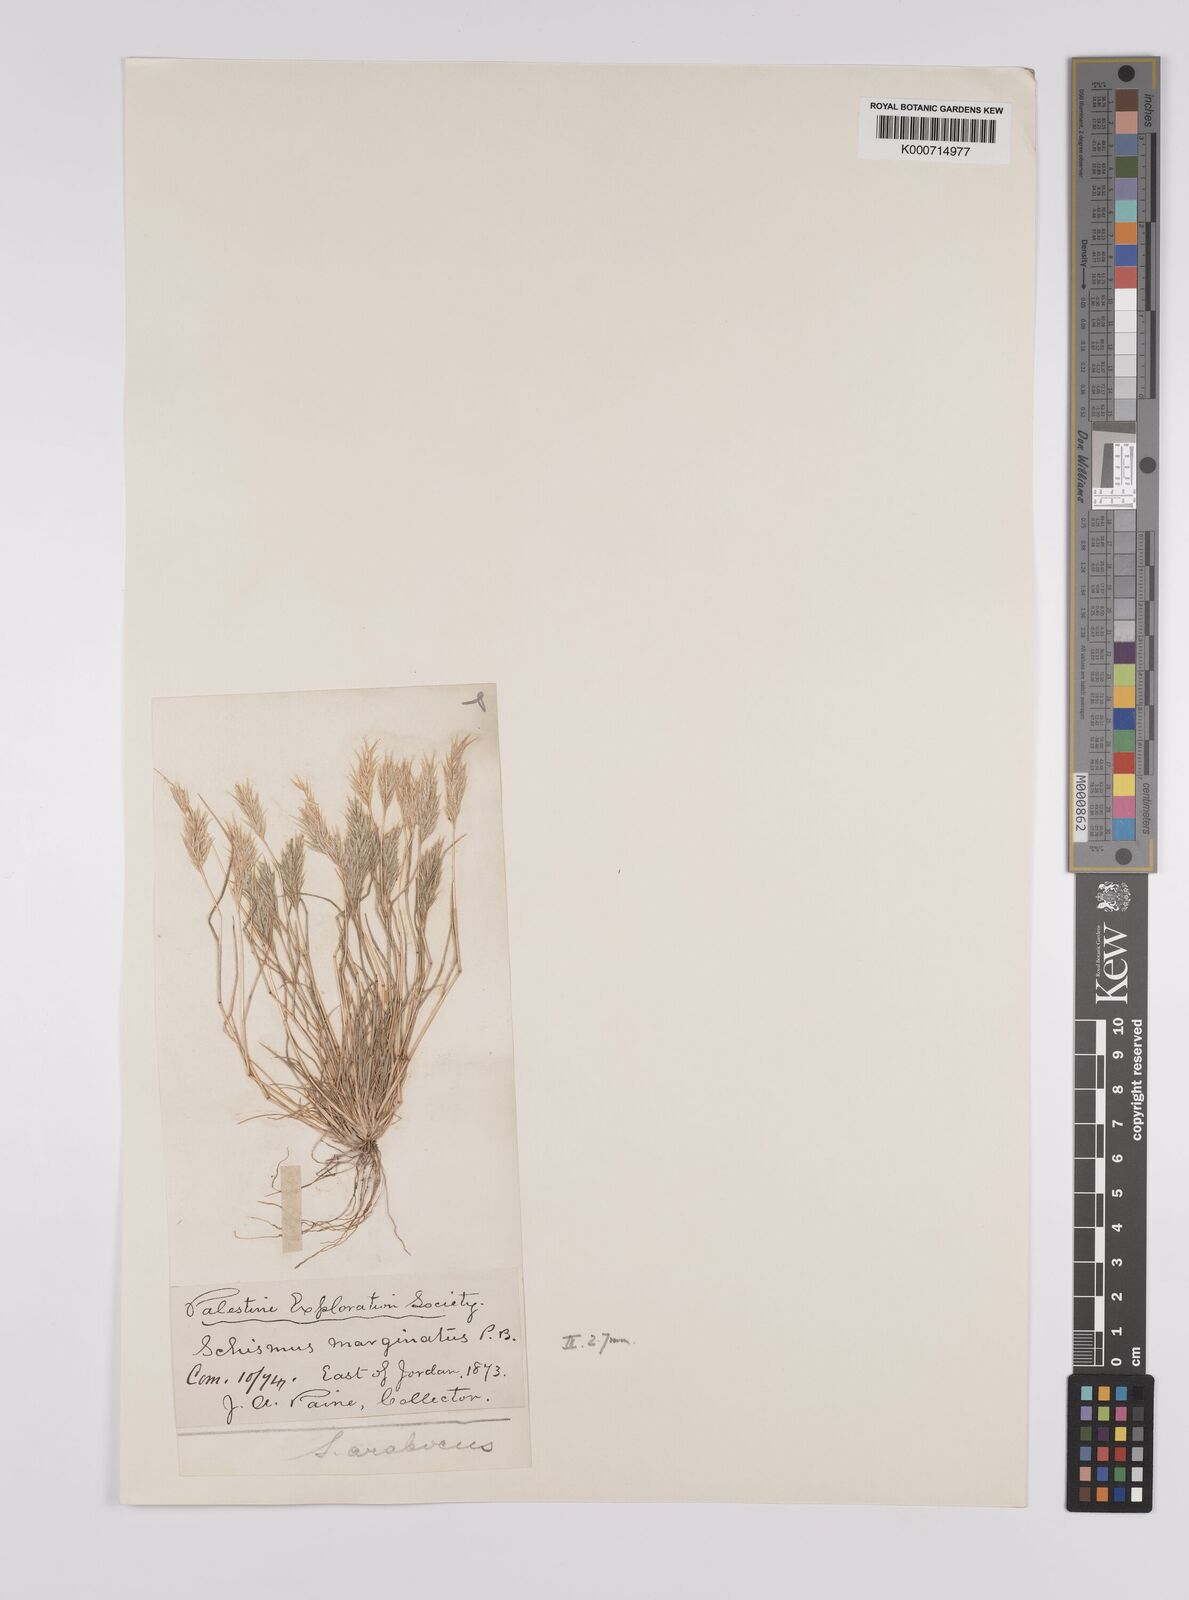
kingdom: Plantae
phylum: Tracheophyta
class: Liliopsida
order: Poales
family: Poaceae
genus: Schismus
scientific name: Schismus arabicus
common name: Arabian schismus
